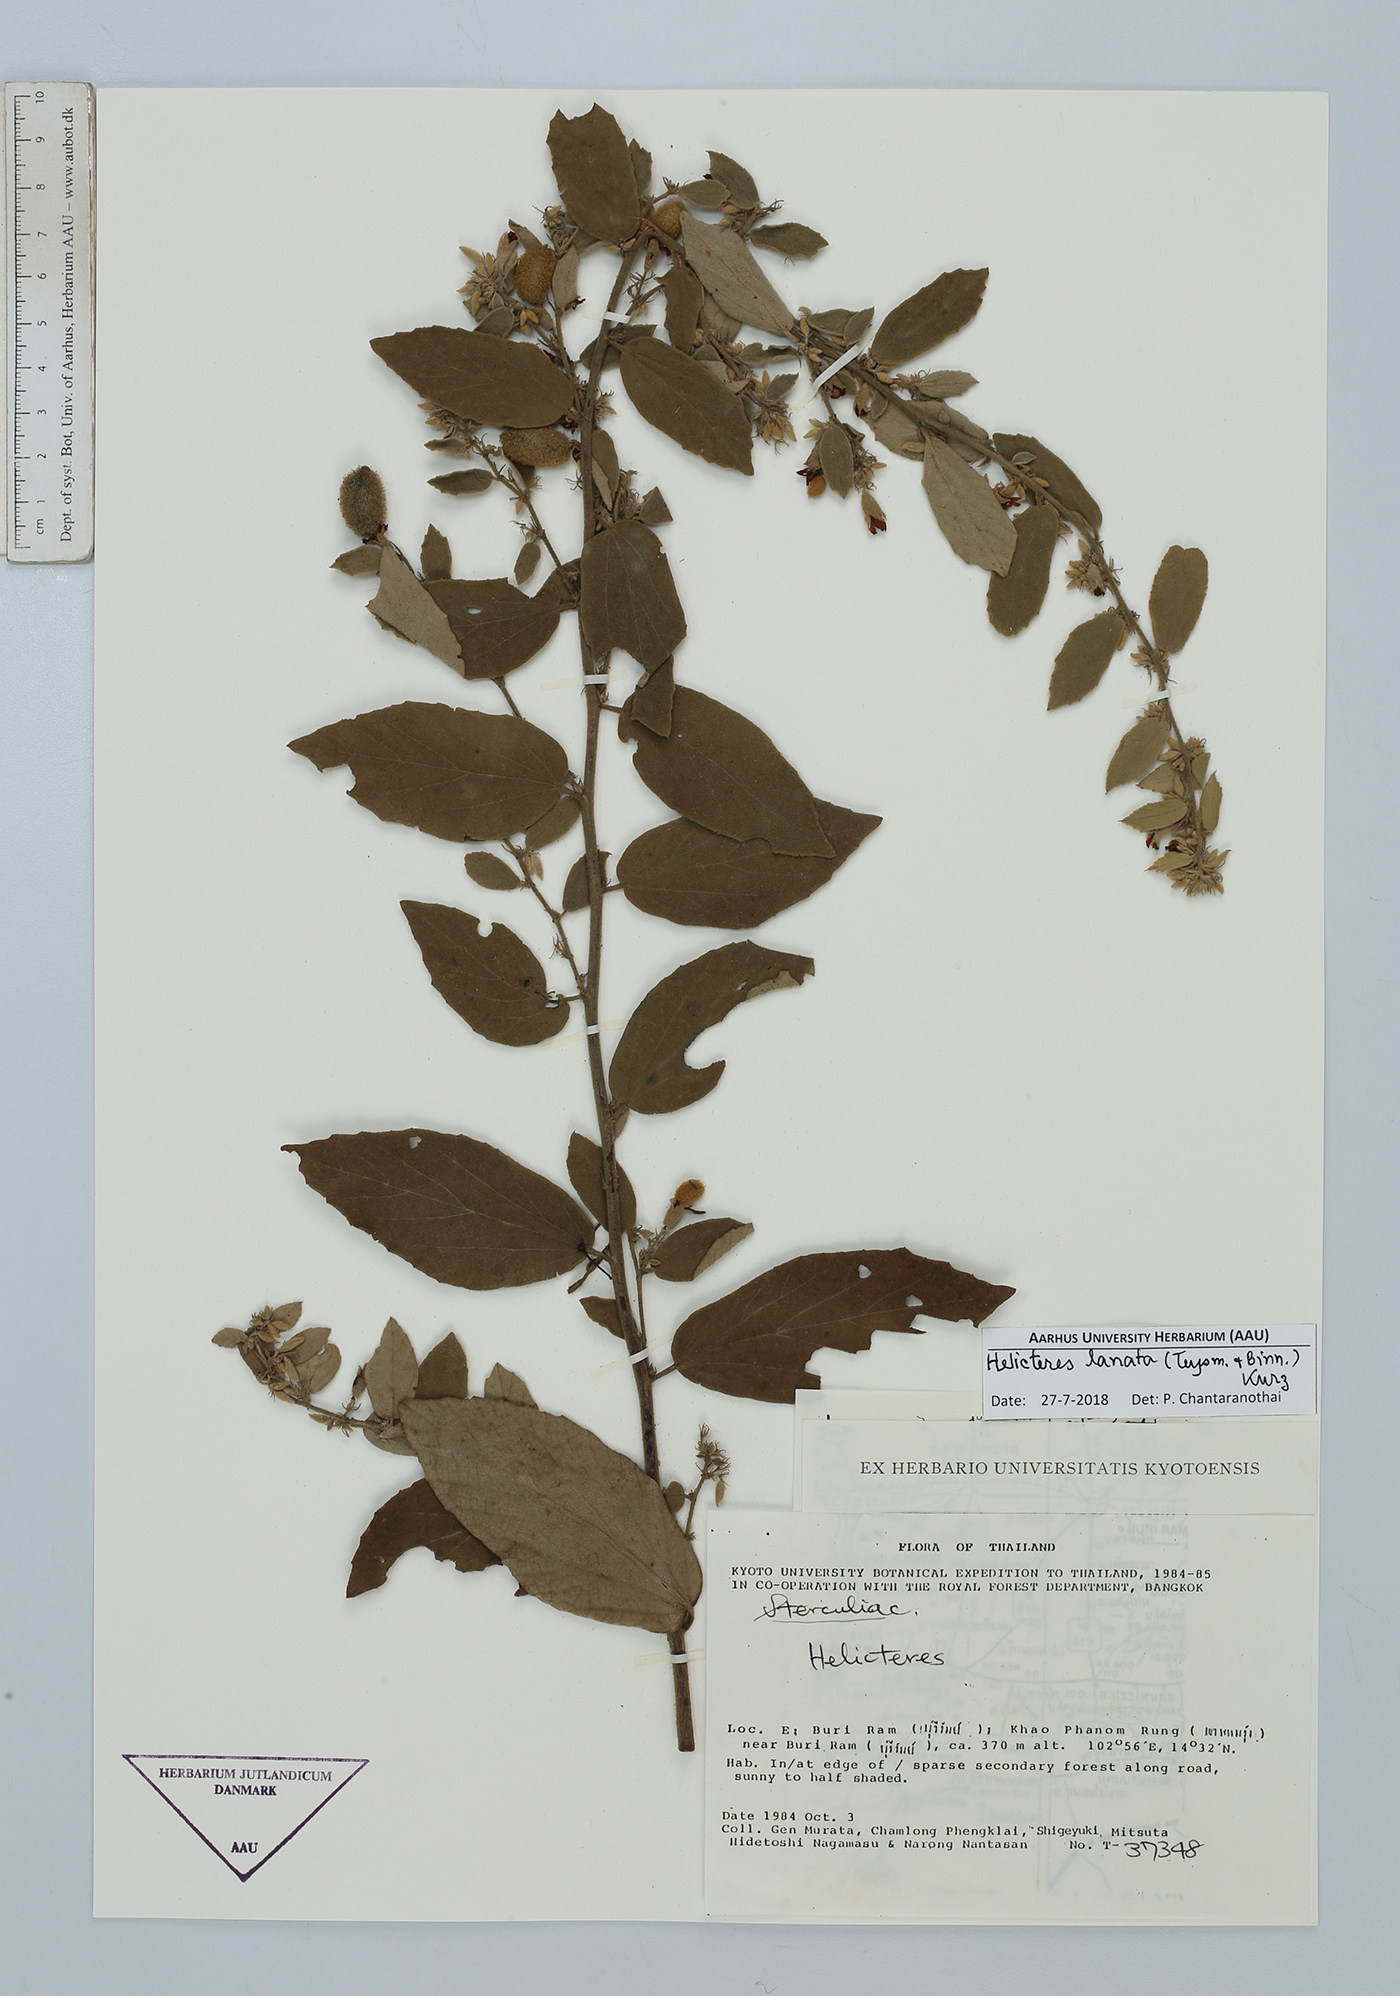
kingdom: Plantae
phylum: Tracheophyta
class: Magnoliopsida
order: Malvales
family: Malvaceae
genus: Helicteres
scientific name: Helicteres lanata
